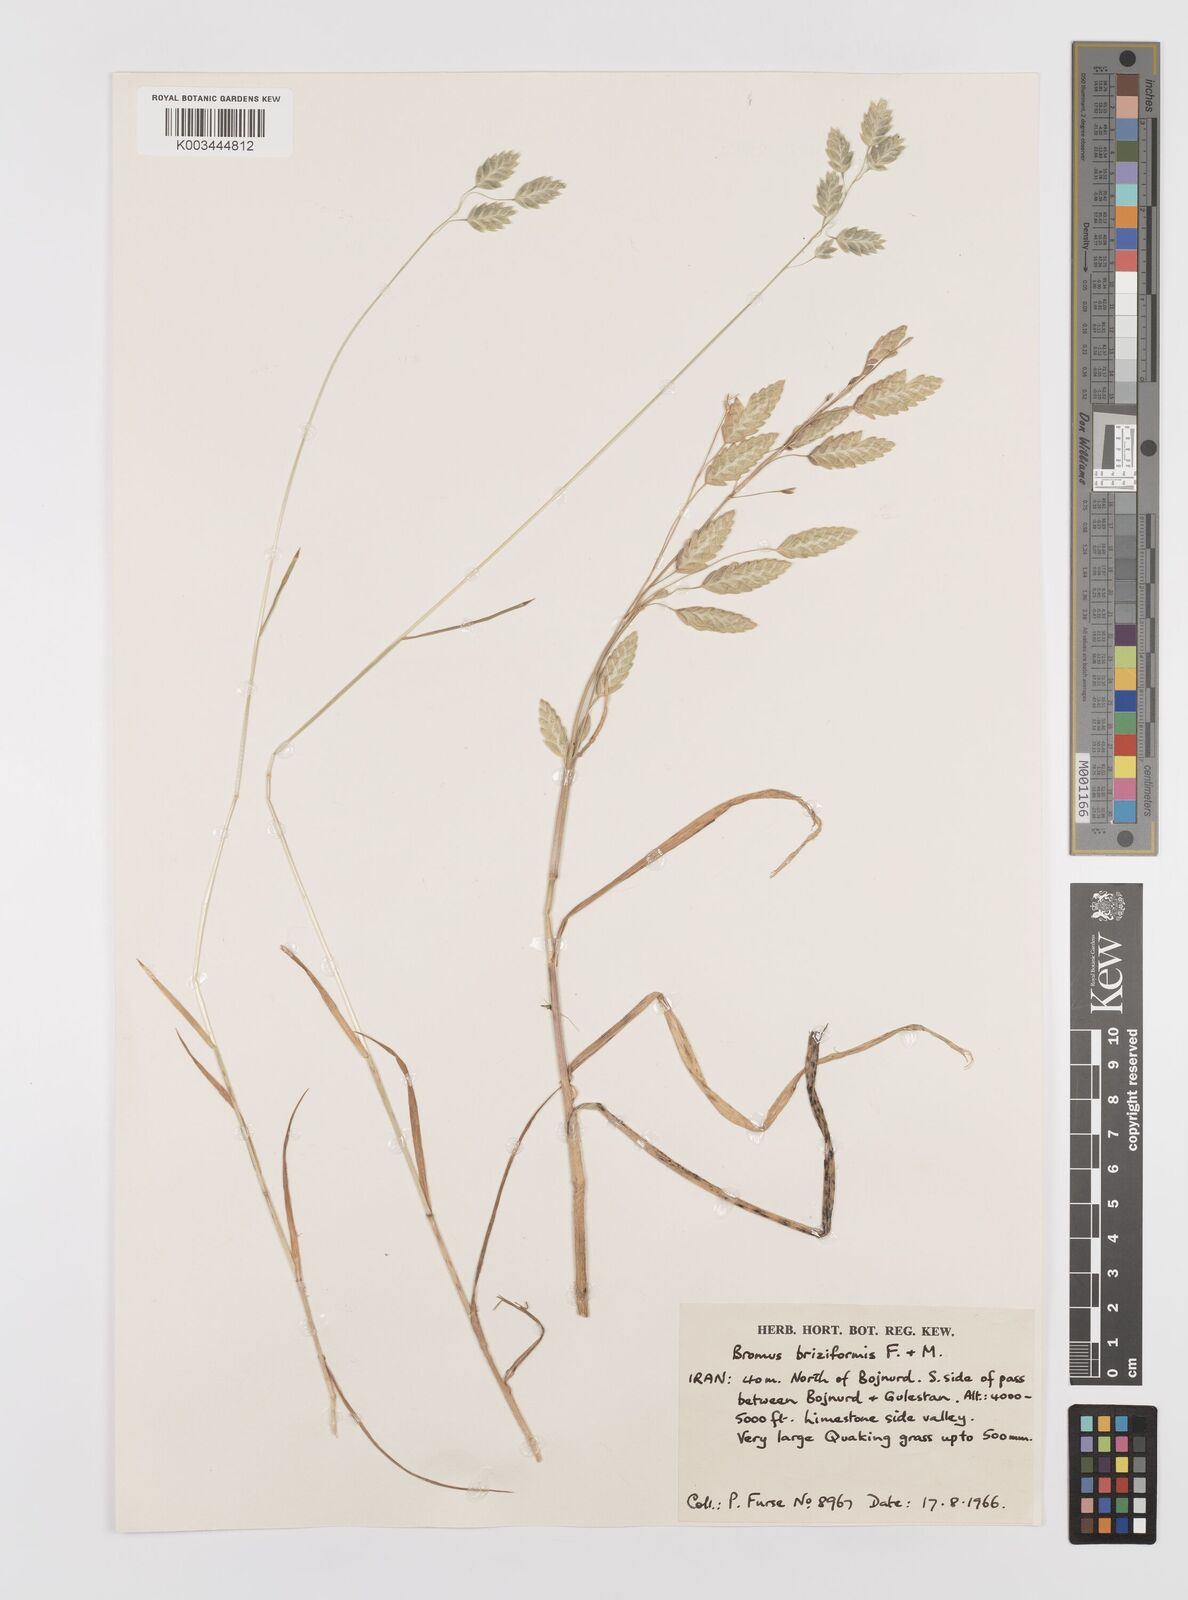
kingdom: Plantae
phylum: Tracheophyta
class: Liliopsida
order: Poales
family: Poaceae
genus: Bromus
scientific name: Bromus briziformis
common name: Rattlesnake brome
